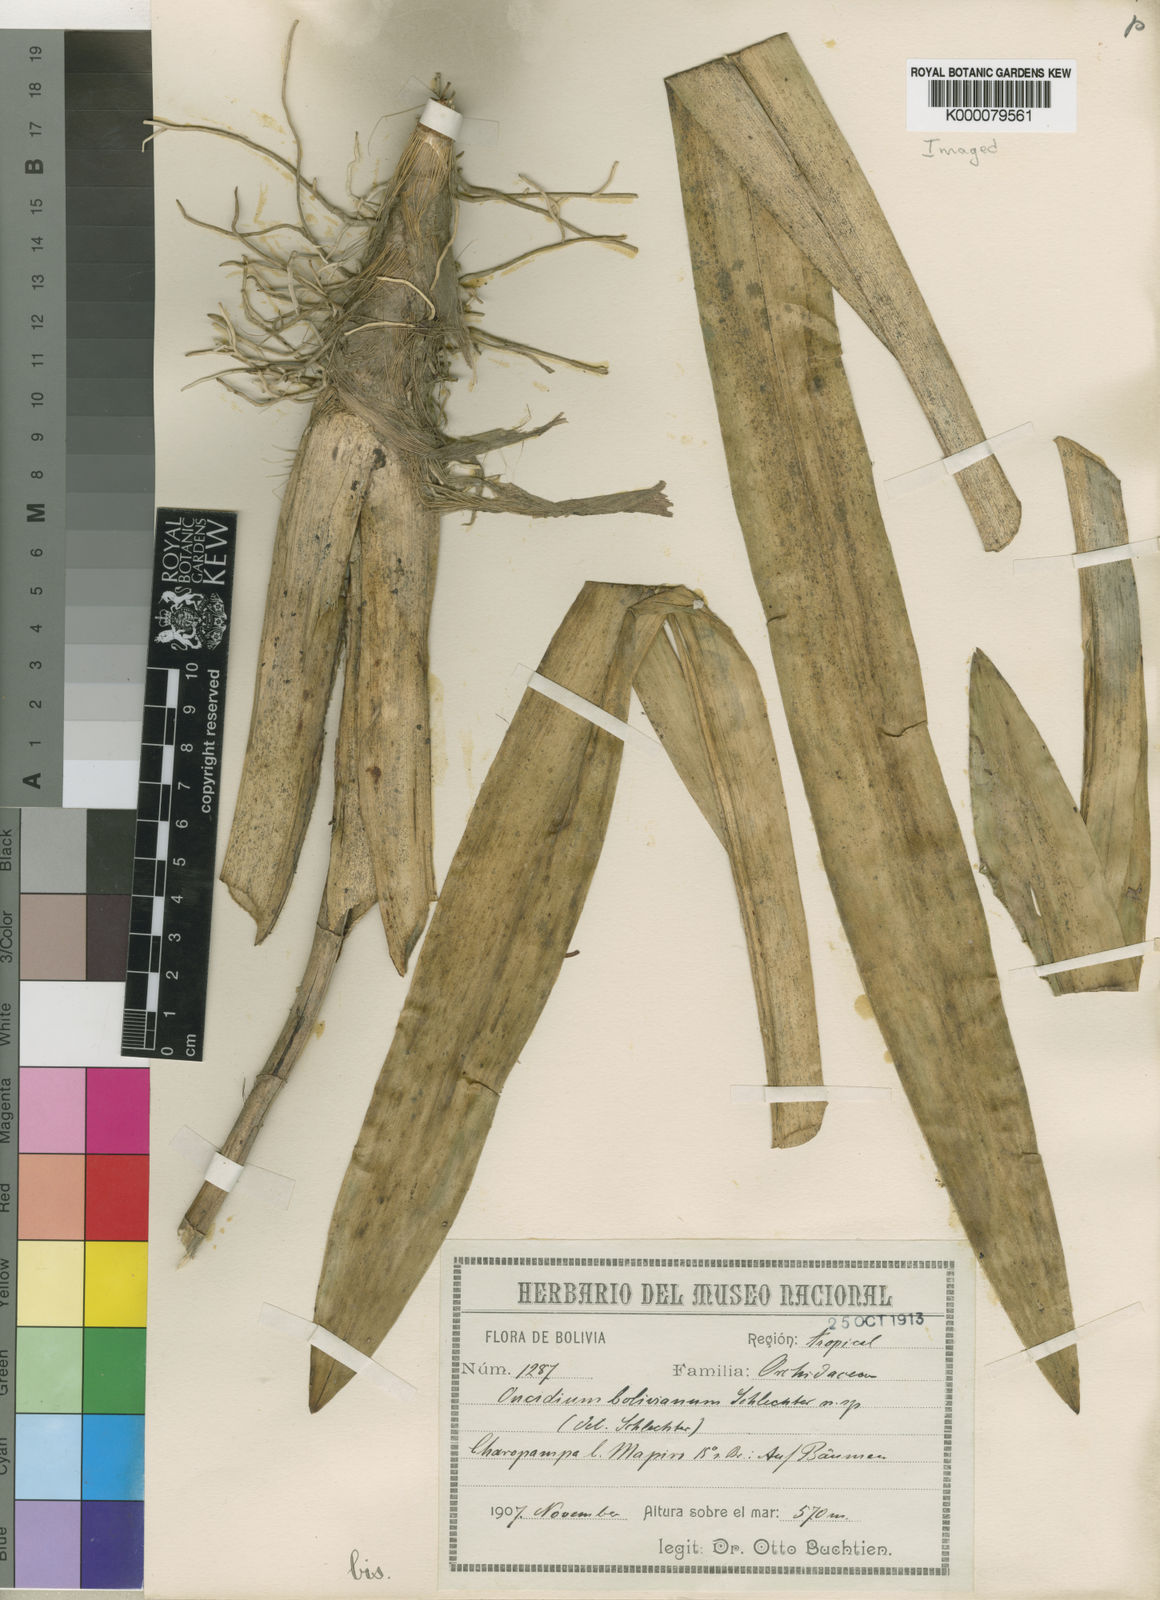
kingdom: Plantae
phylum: Tracheophyta
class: Liliopsida
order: Asparagales
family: Orchidaceae
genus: Oncidium
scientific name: Oncidium baueri
